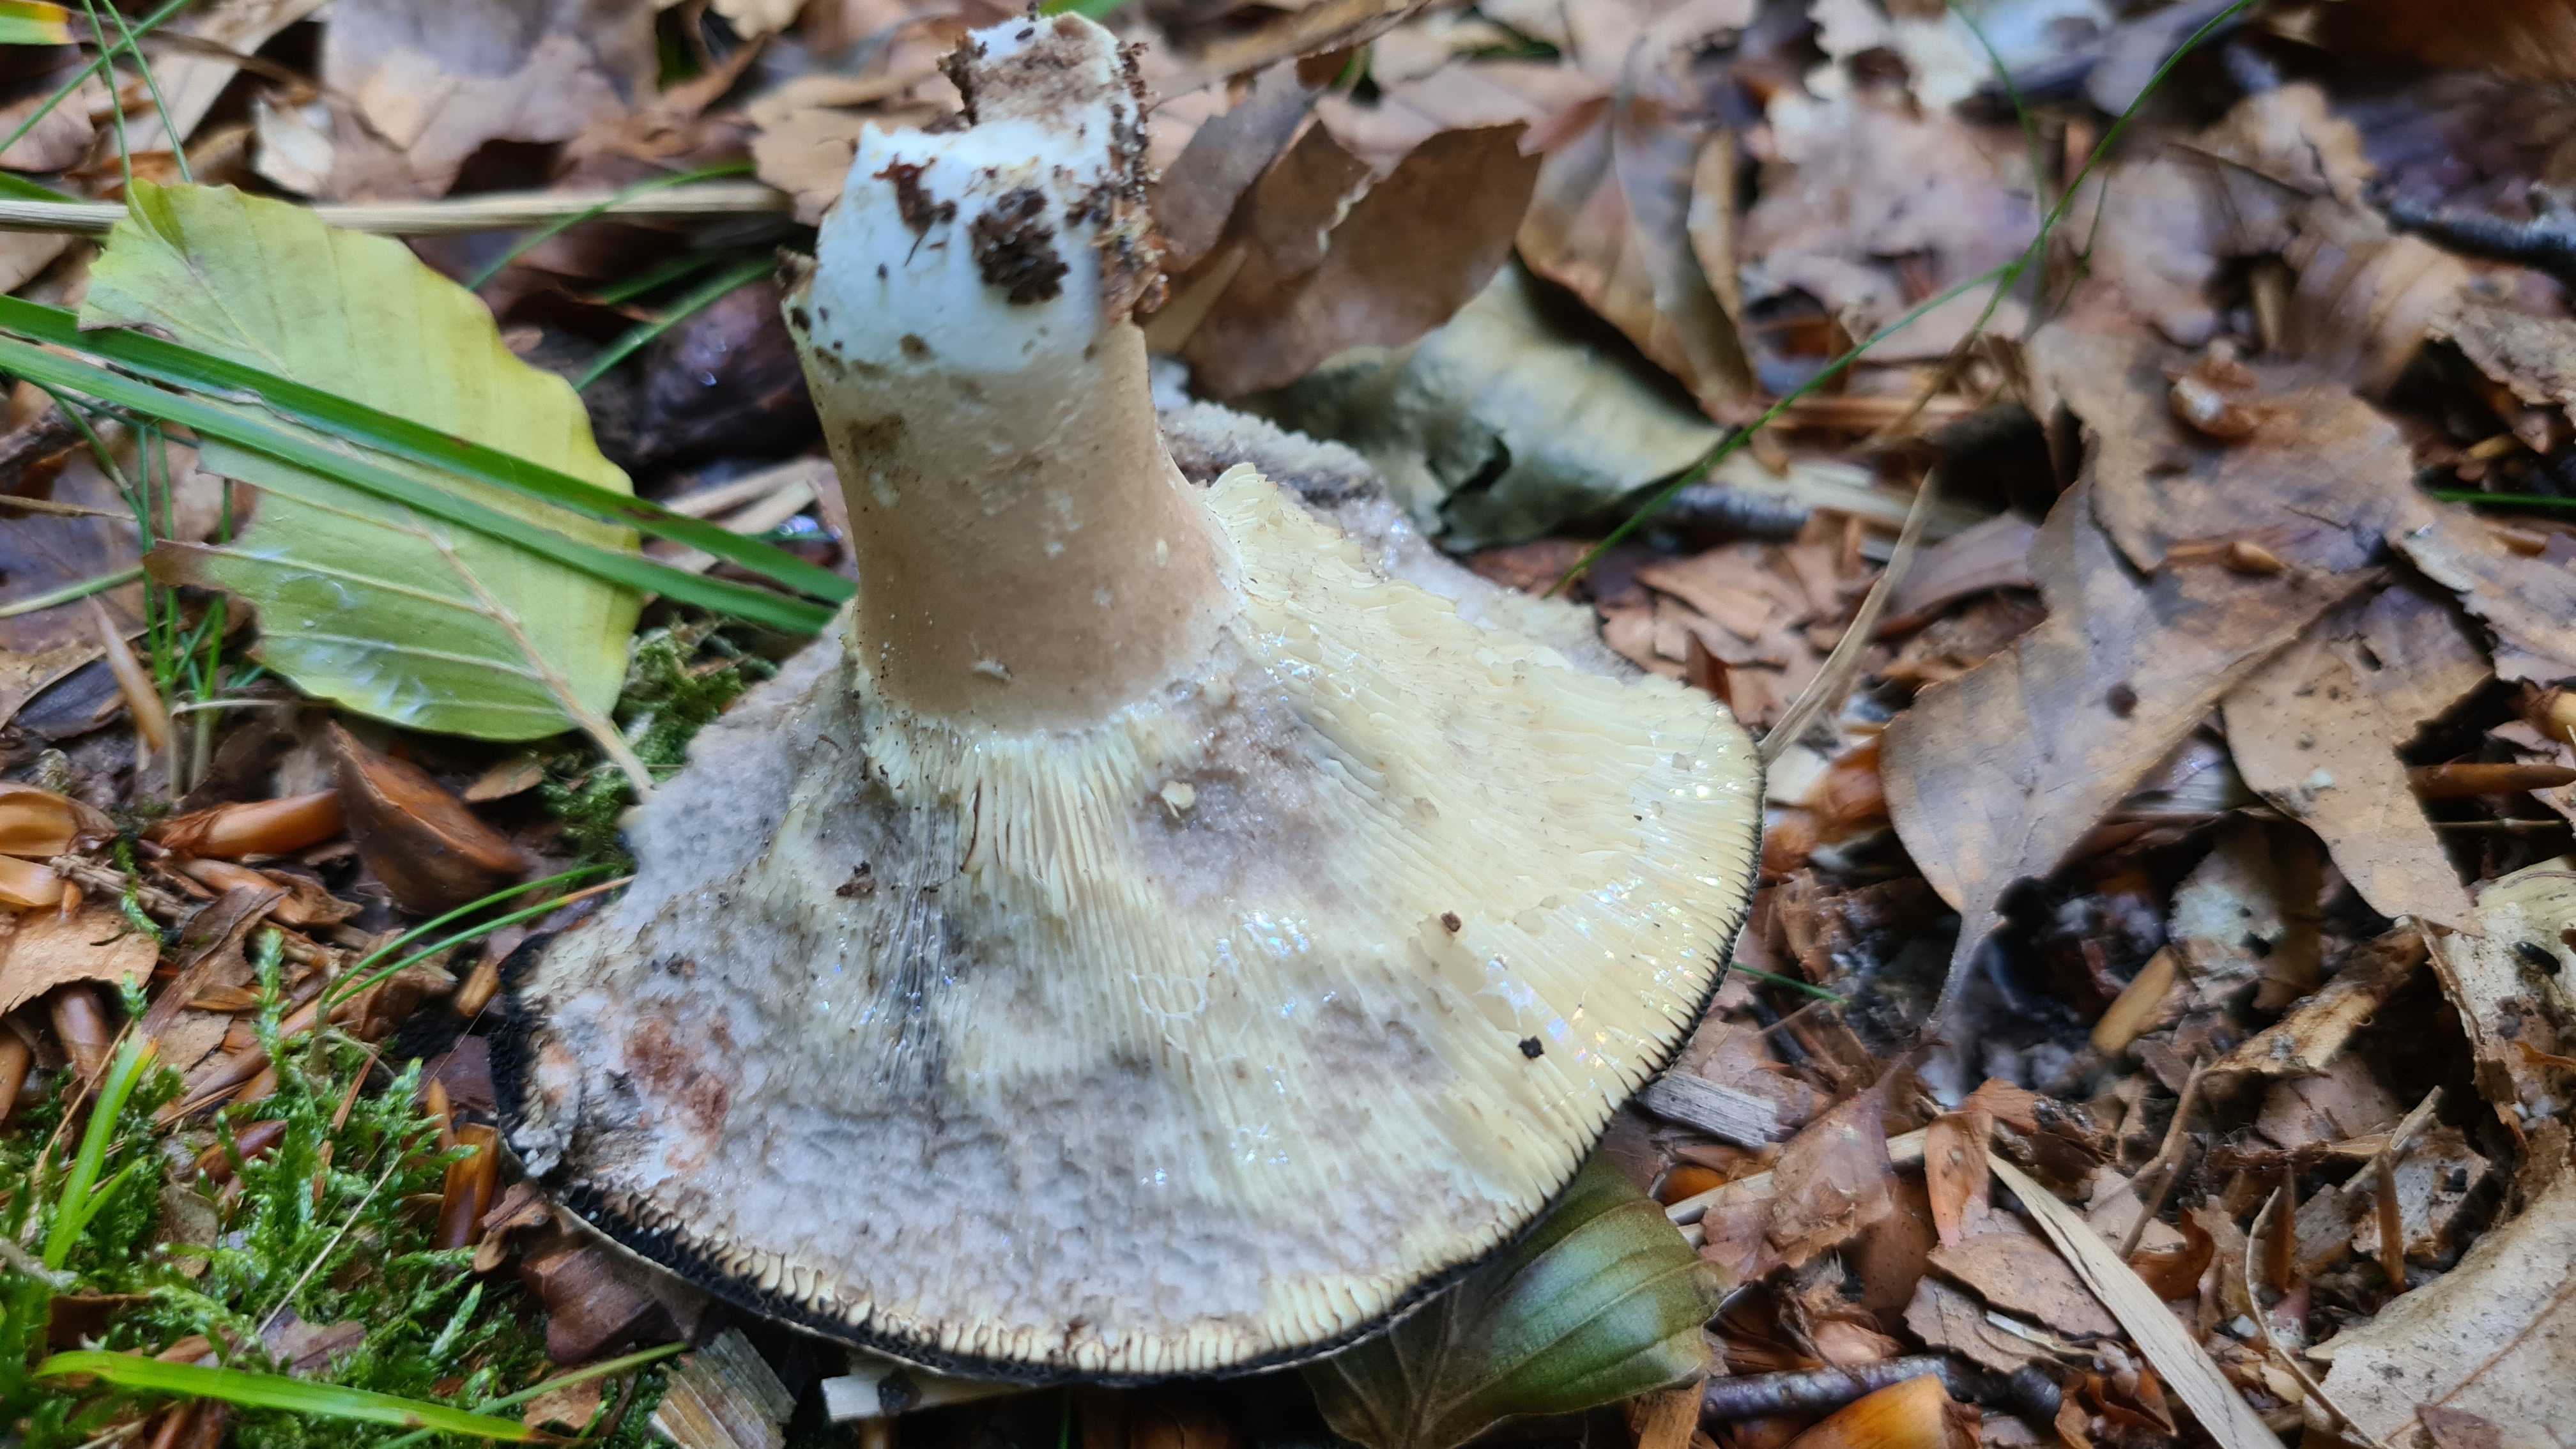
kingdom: Fungi
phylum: Basidiomycota
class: Agaricomycetes
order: Russulales
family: Russulaceae
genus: Russula
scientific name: Russula densifolia
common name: tætbladet skørhat
